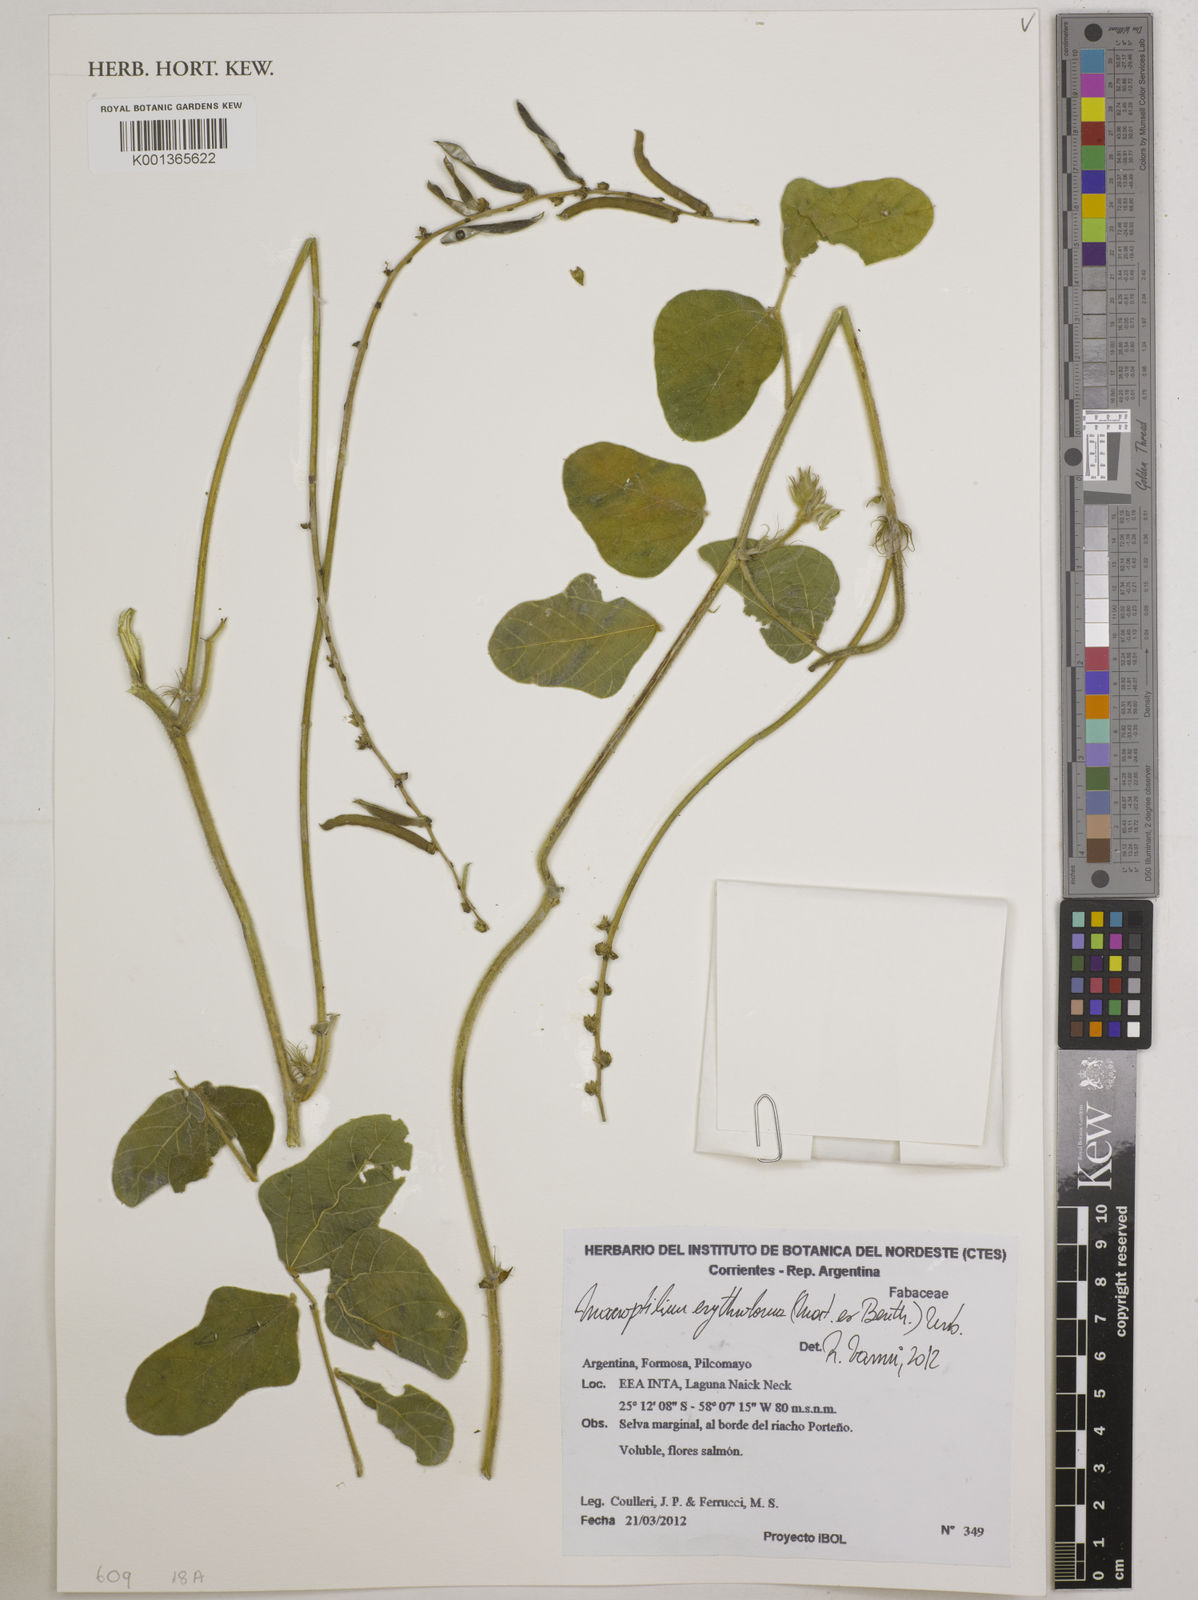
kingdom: Plantae
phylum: Tracheophyta
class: Magnoliopsida
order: Fabales
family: Fabaceae
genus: Macroptilium
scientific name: Macroptilium erythroloma
